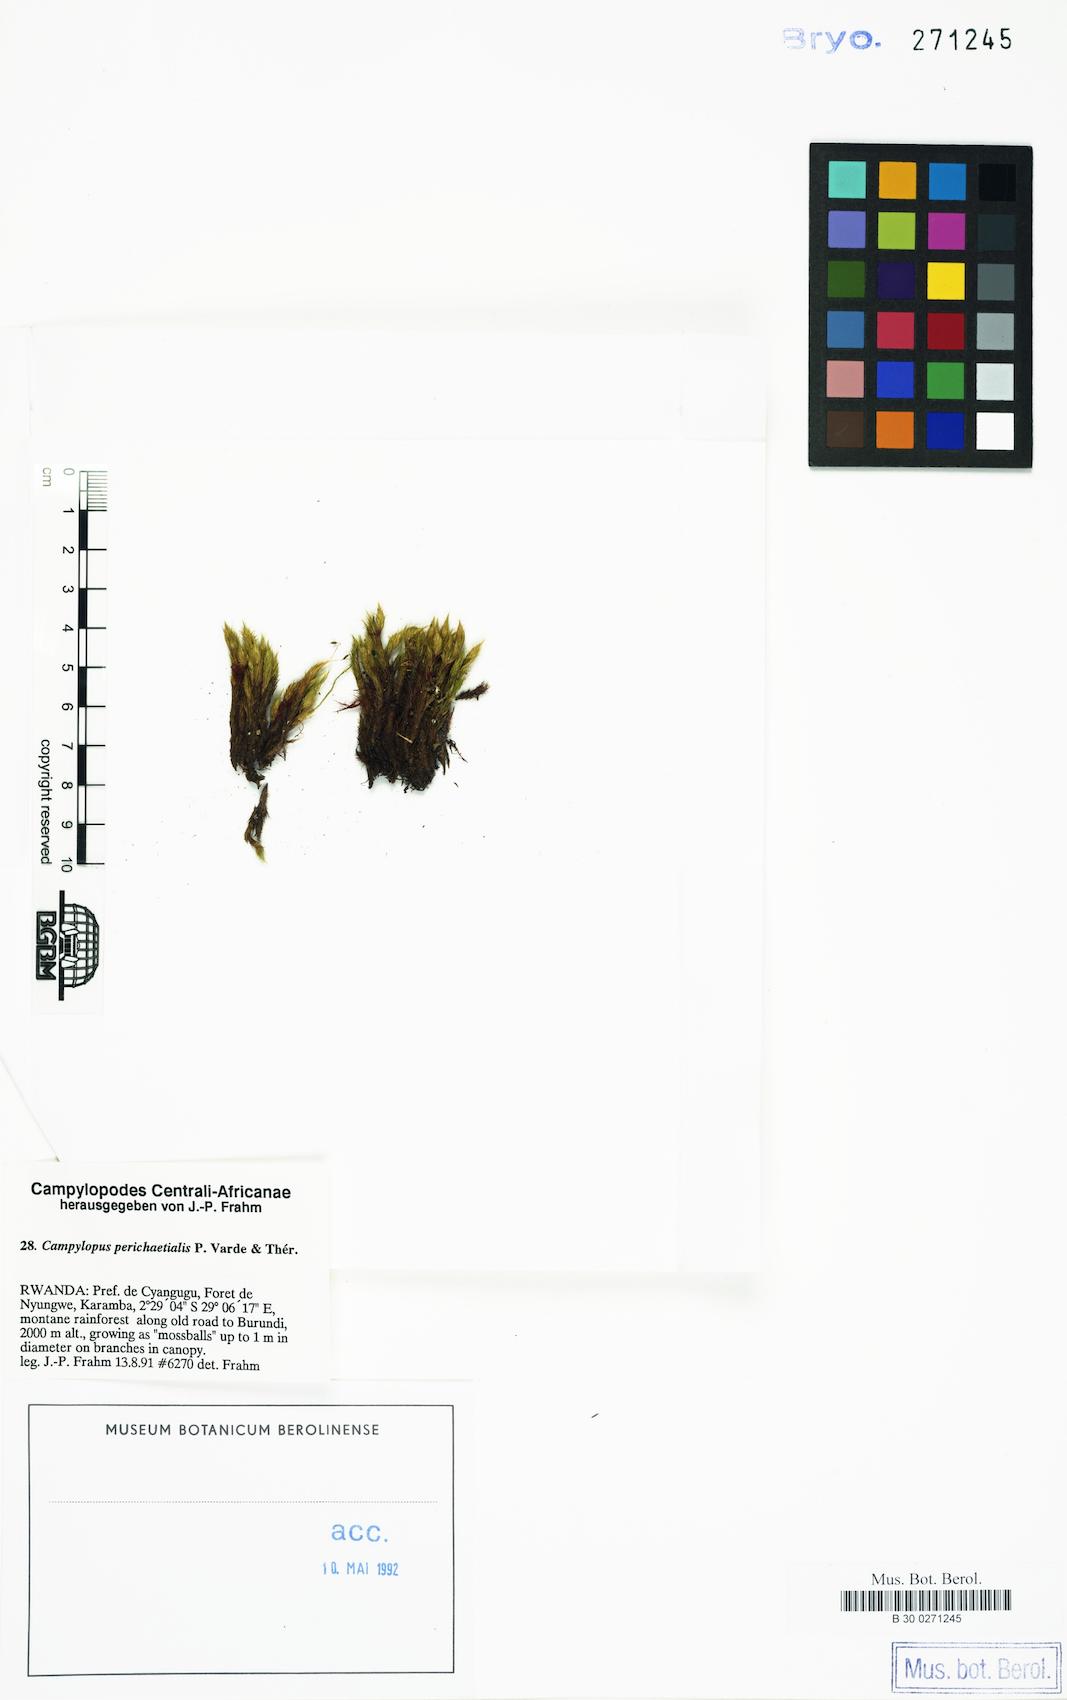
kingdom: Plantae
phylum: Bryophyta
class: Bryopsida
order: Dicranales
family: Leucobryaceae
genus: Campylopus
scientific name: Campylopus flexuosus
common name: Rusty swan-neck moss
